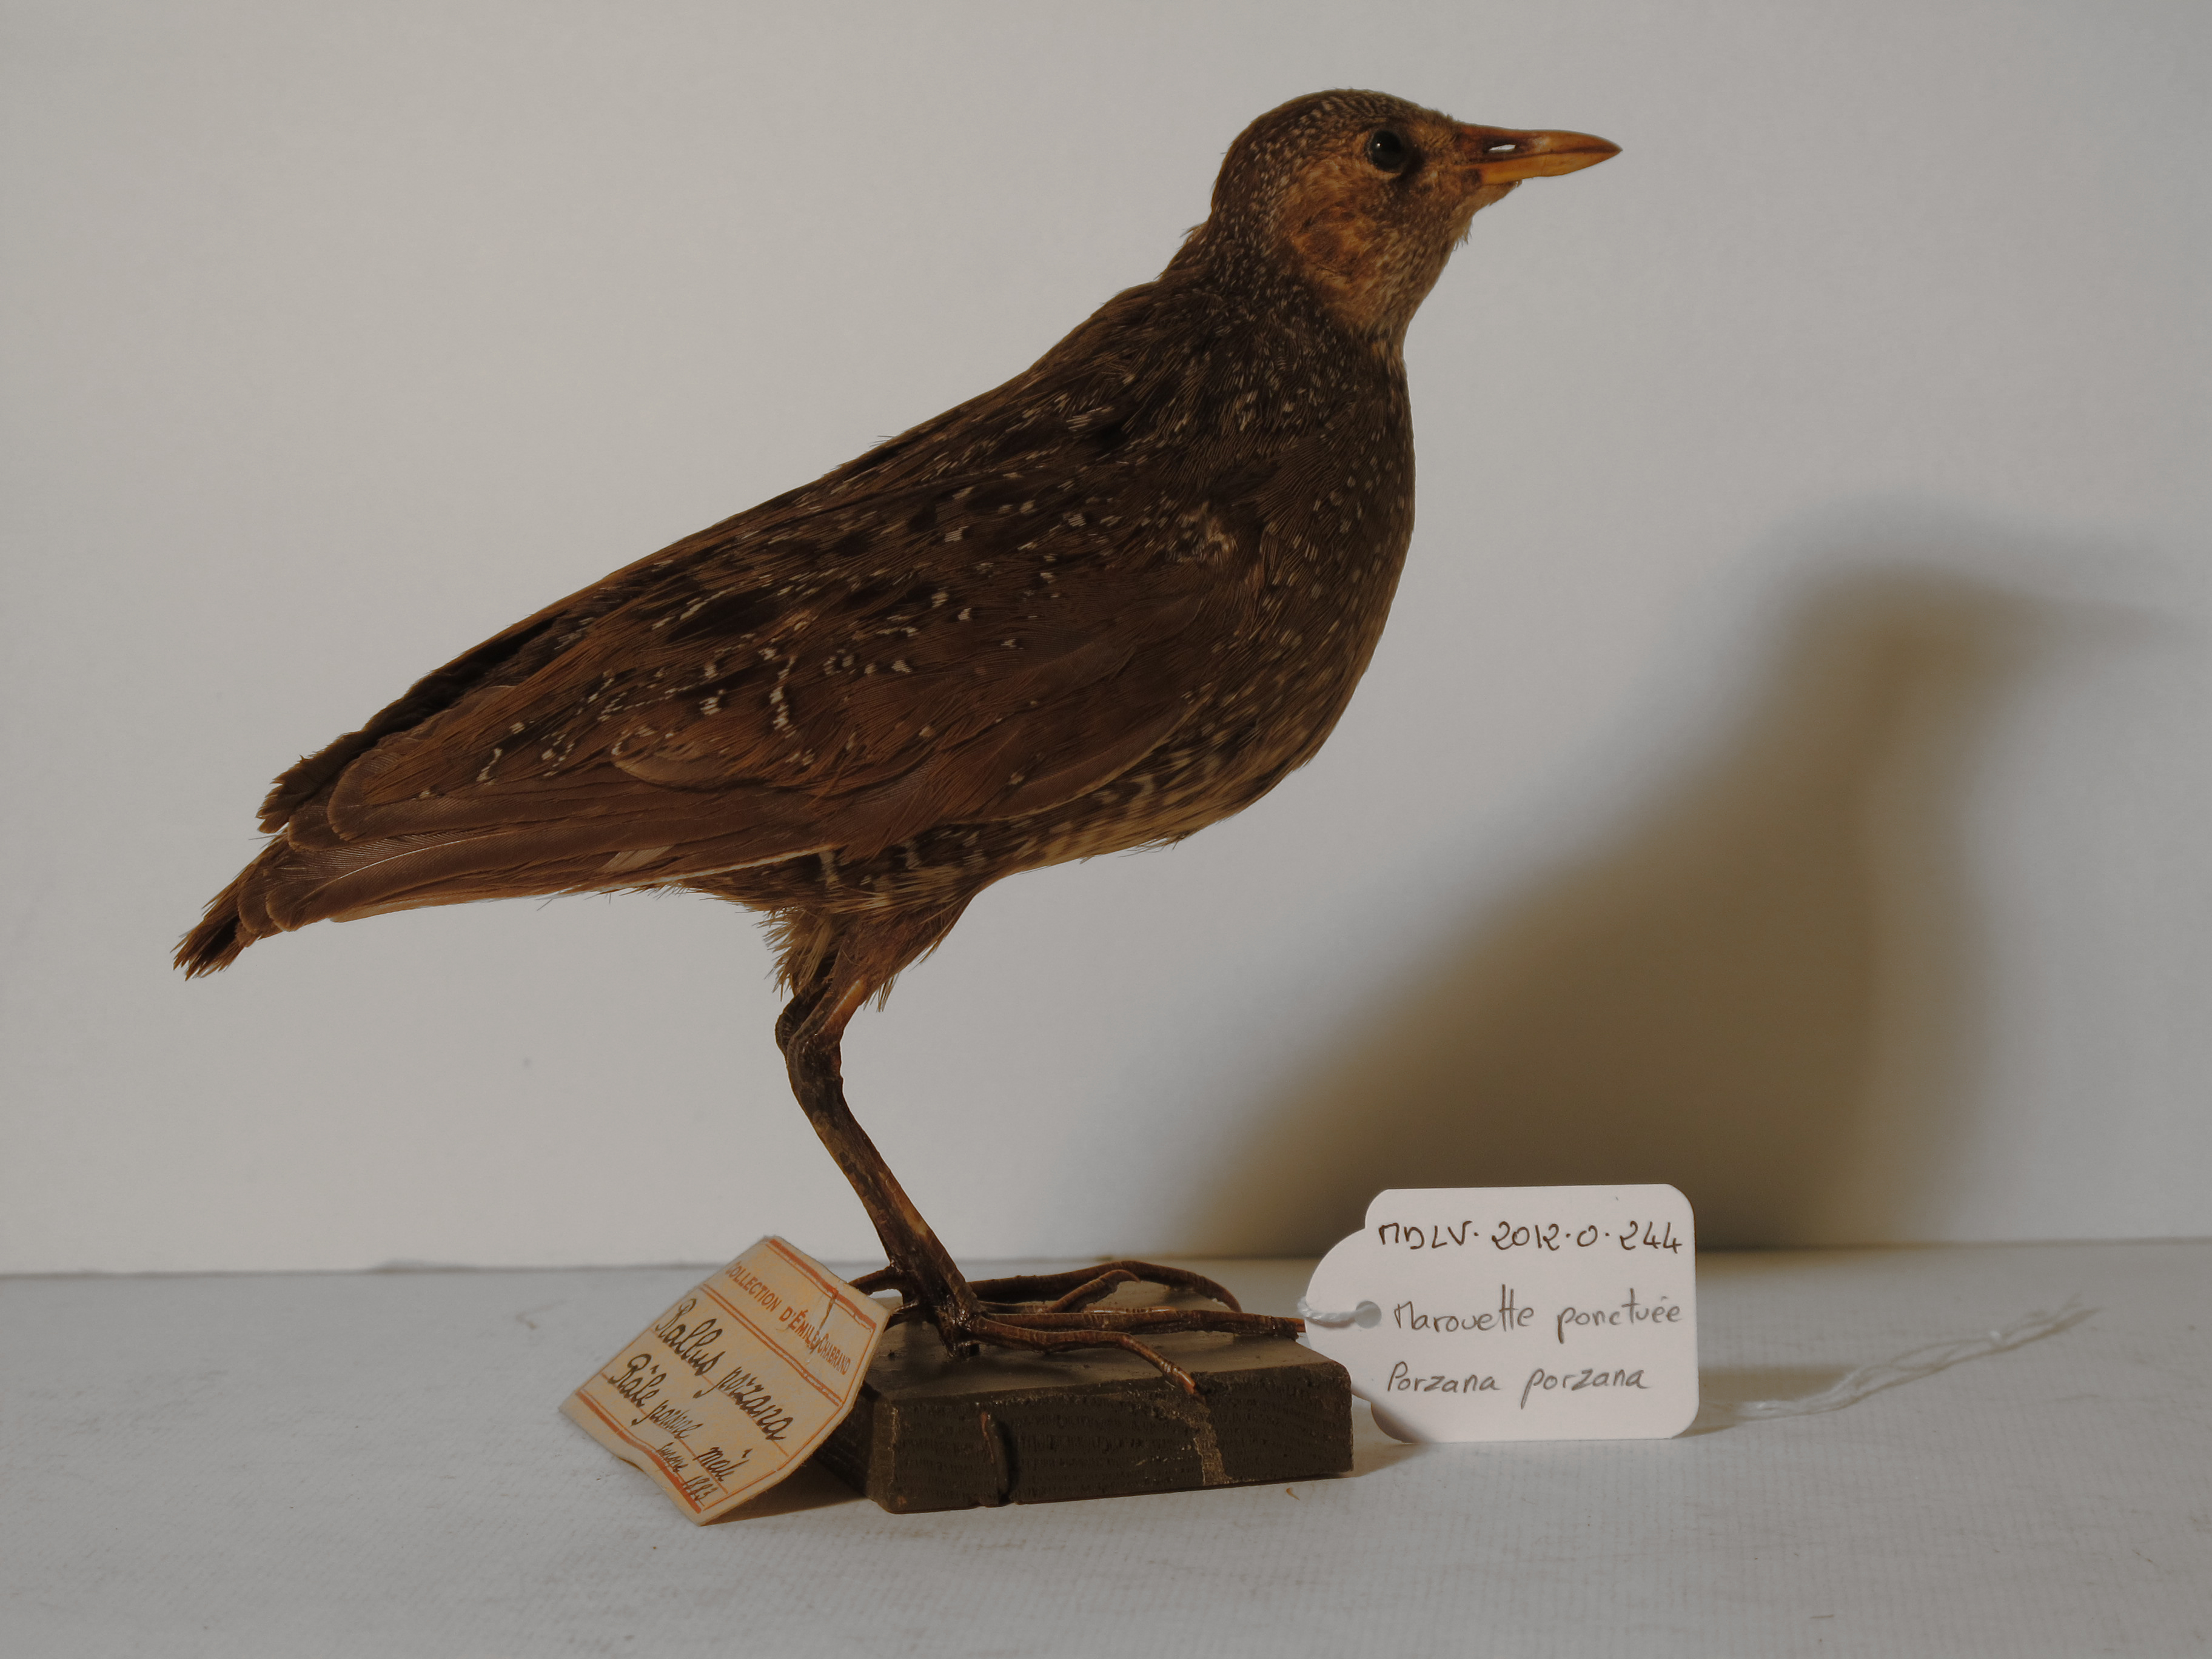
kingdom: Animalia
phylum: Chordata
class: Aves
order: Gruiformes
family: Rallidae
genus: Porzana
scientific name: Porzana porzana
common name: Spotted Crake
